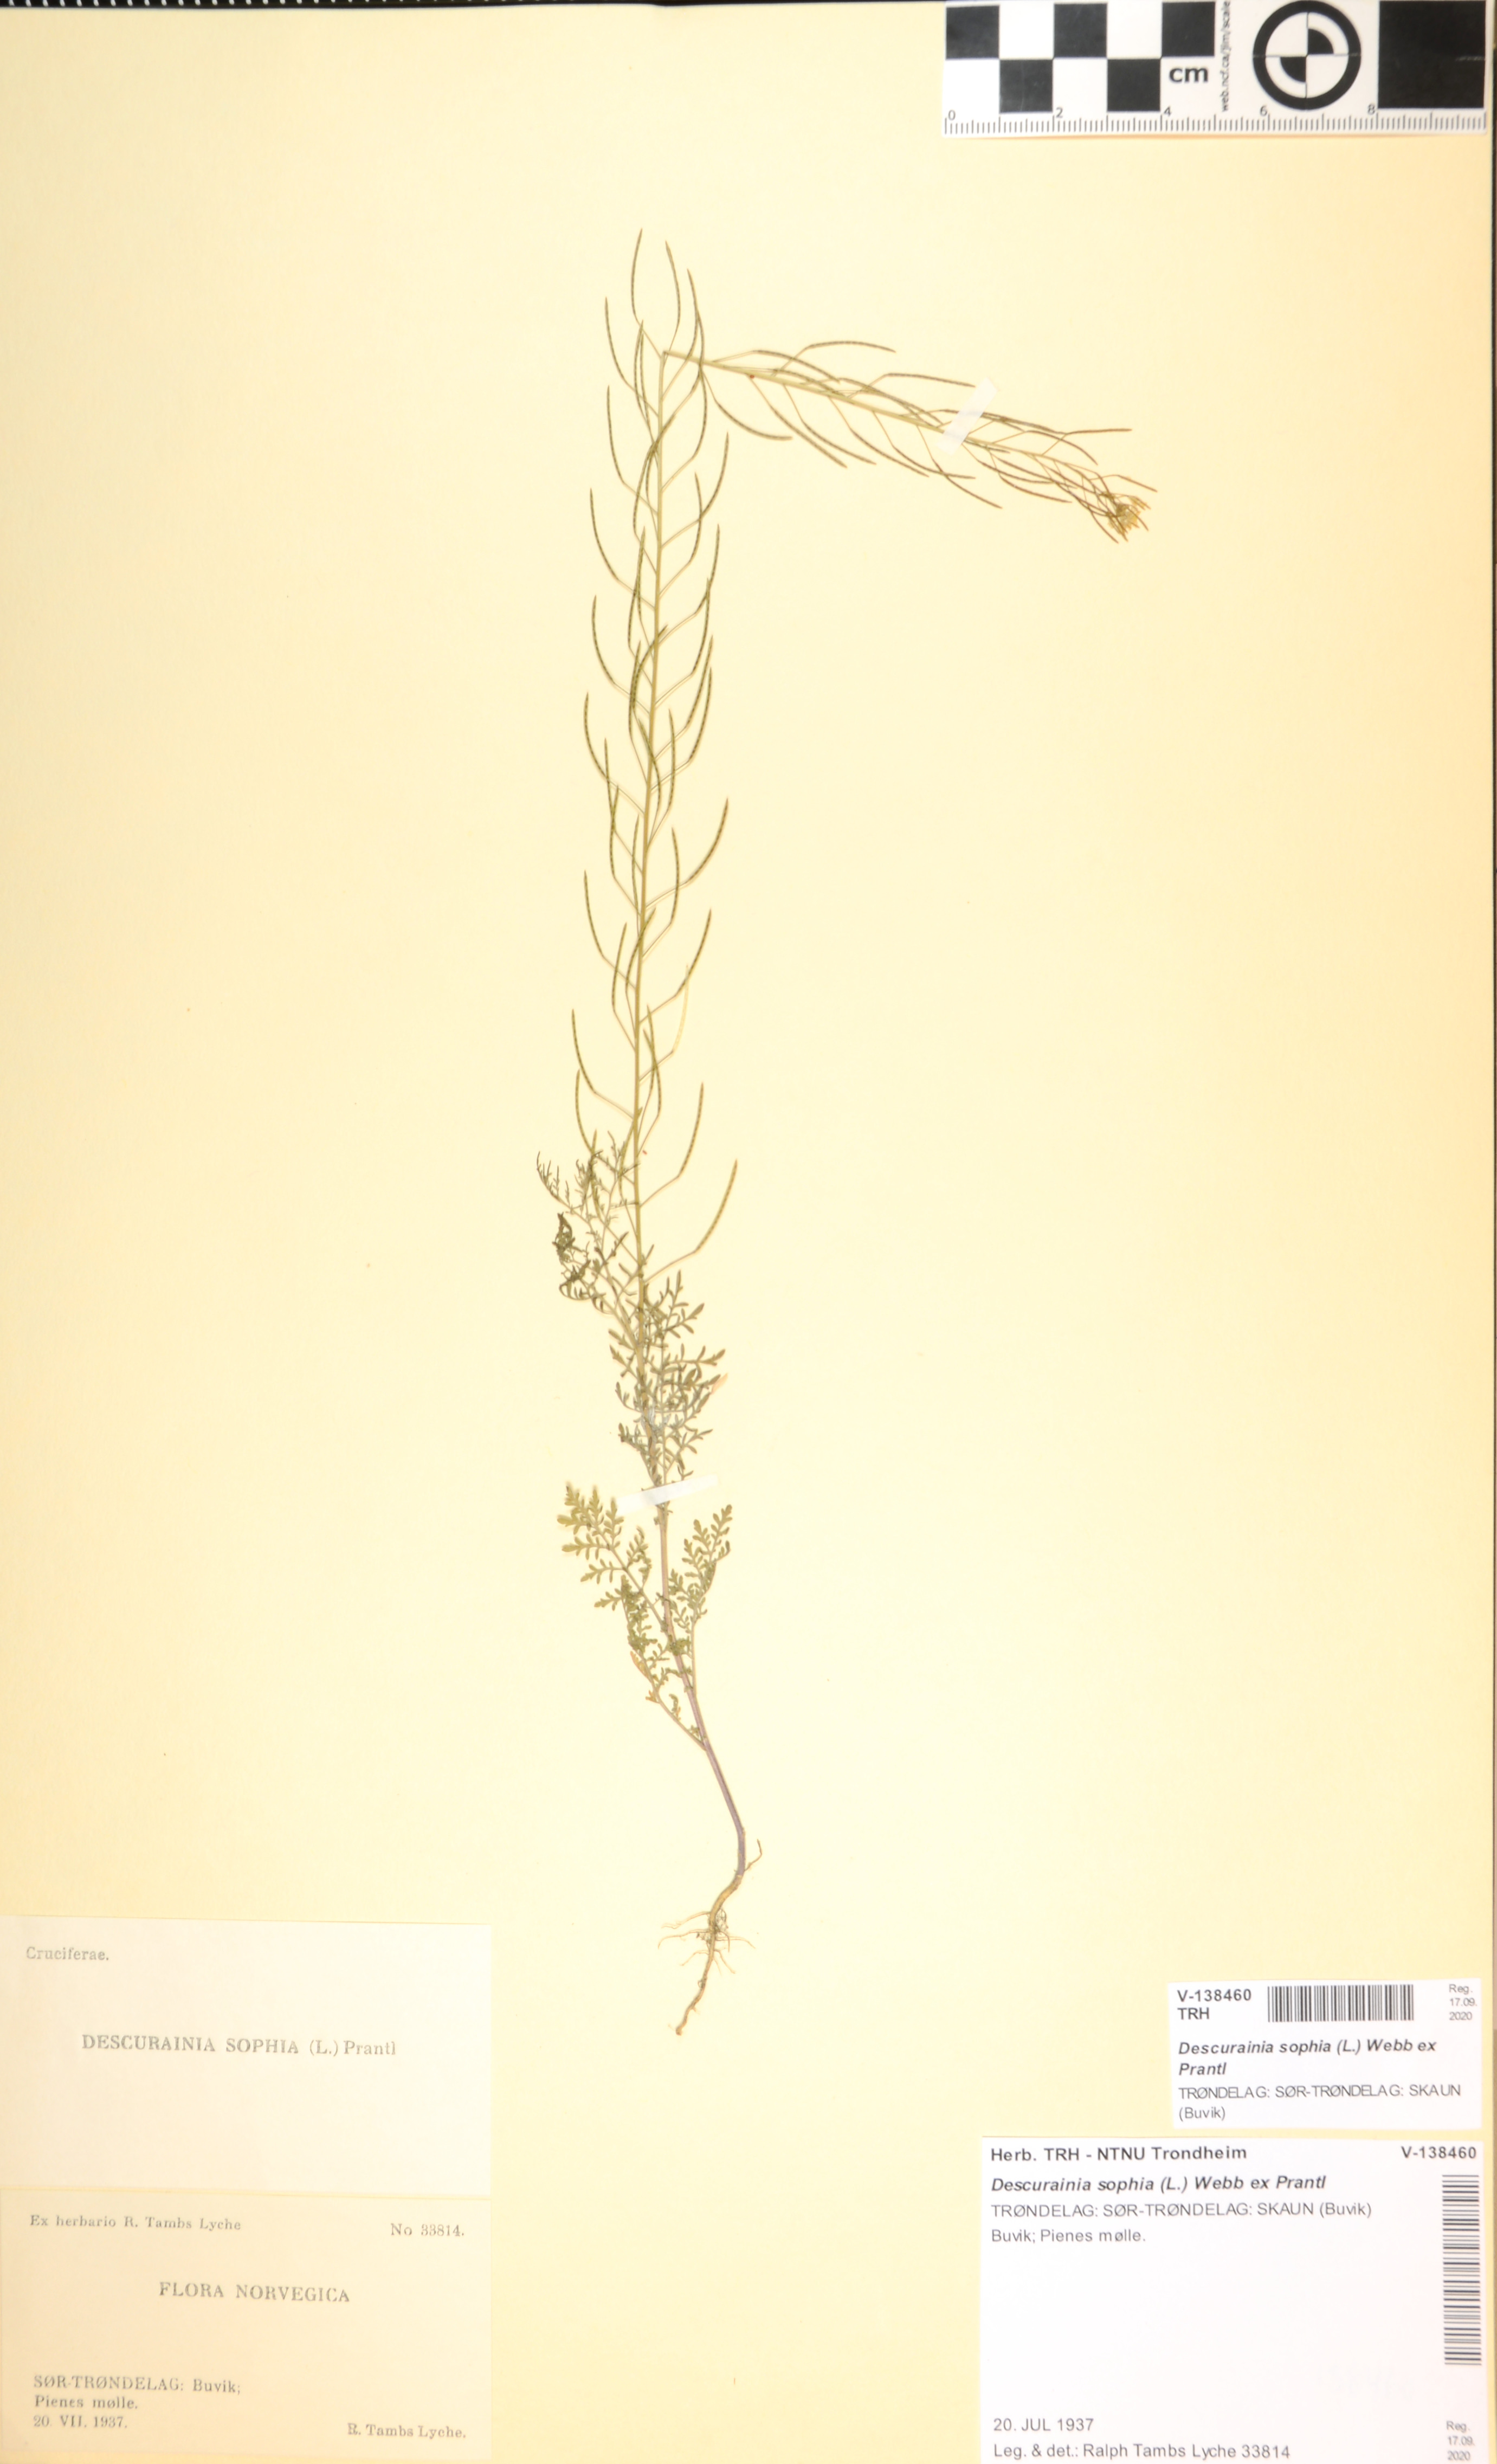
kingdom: Plantae
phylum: Tracheophyta
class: Magnoliopsida
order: Brassicales
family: Brassicaceae
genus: Descurainia
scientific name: Descurainia sophia
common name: Flixweed
